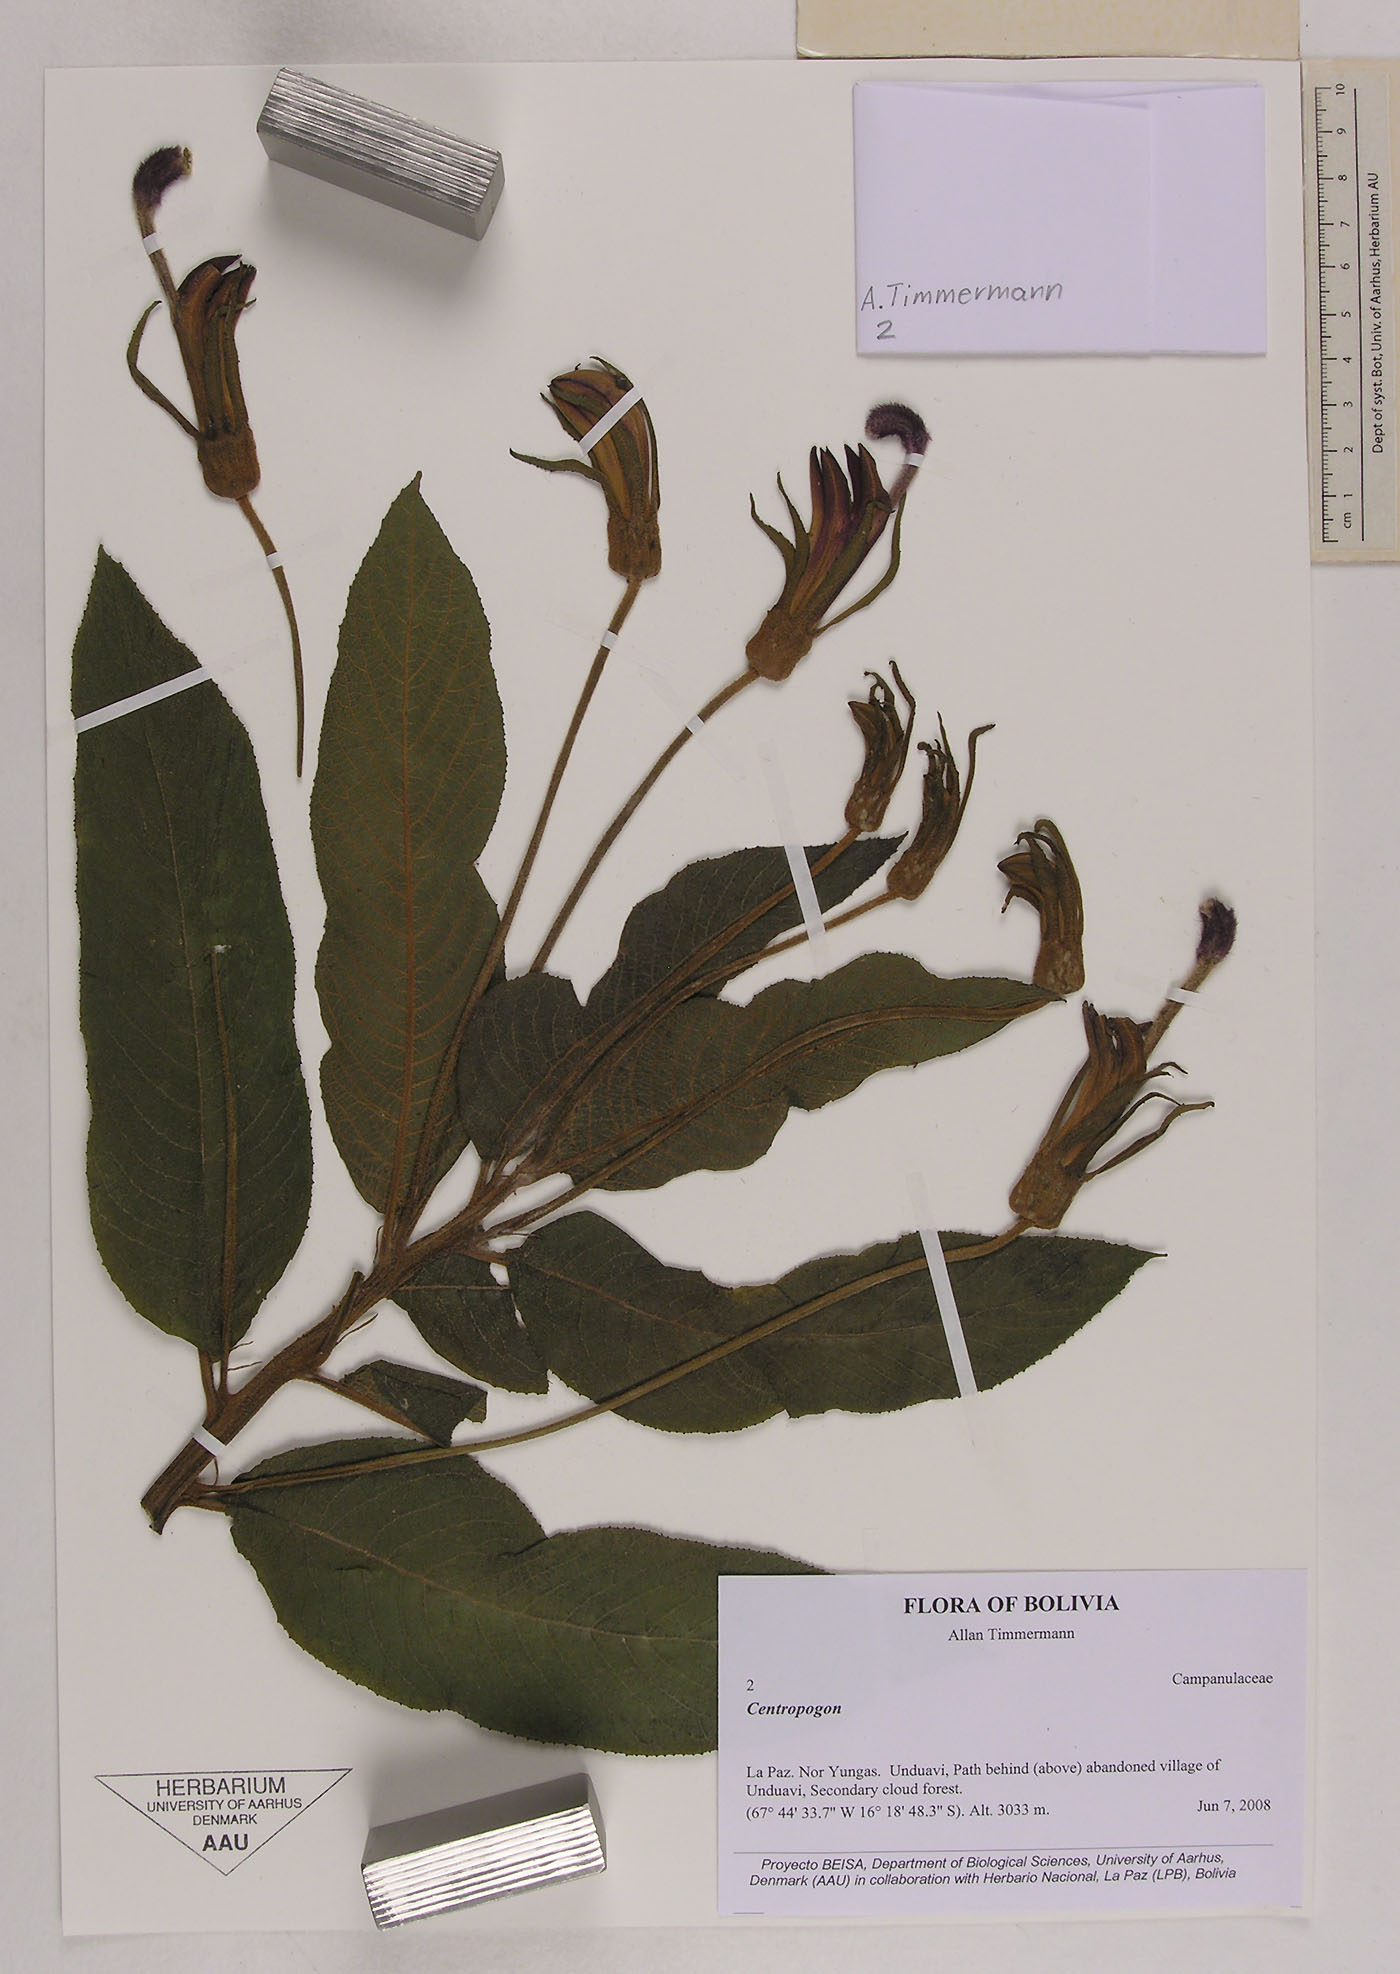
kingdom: Plantae
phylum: Tracheophyta
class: Magnoliopsida
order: Asterales
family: Campanulaceae
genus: Centropogon
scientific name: Centropogon brittonianus
